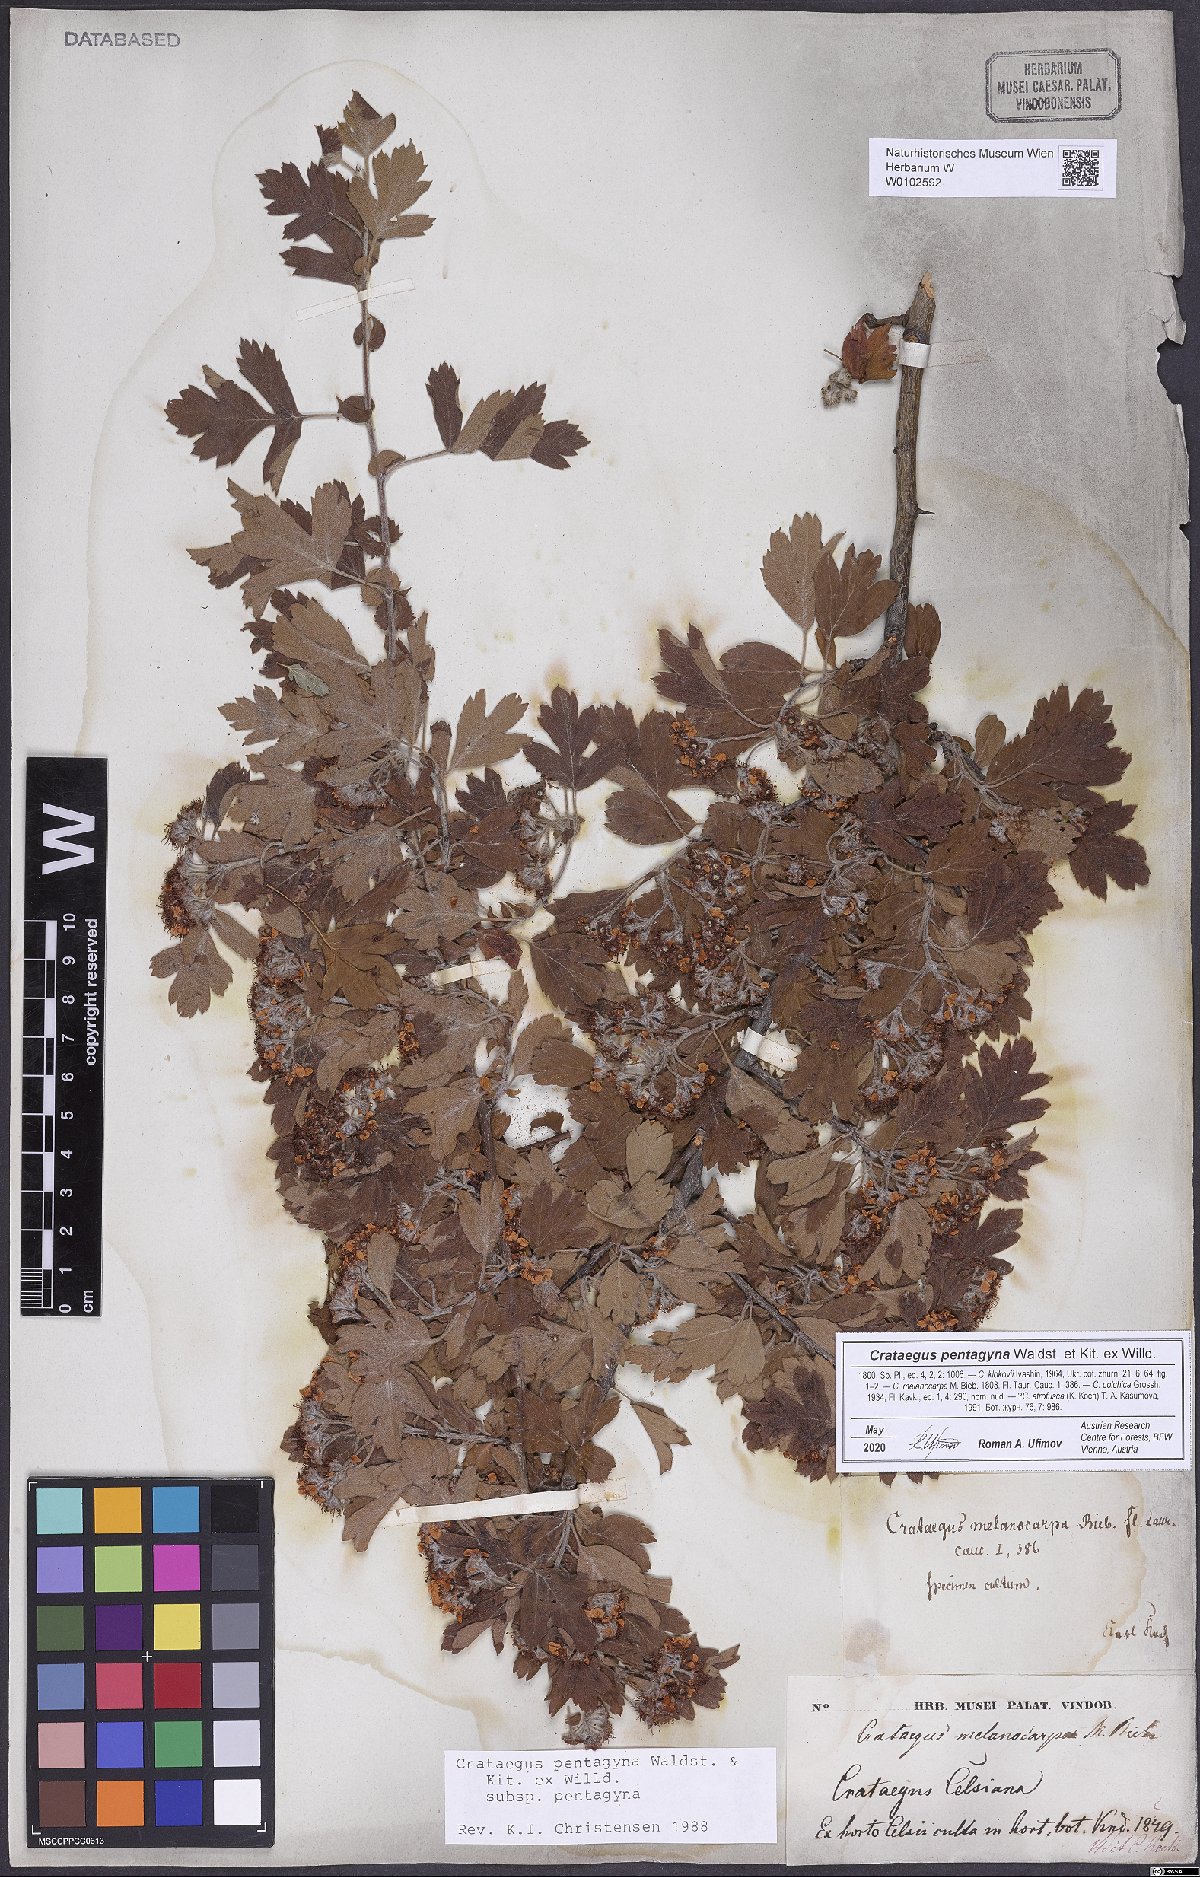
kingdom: Plantae
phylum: Tracheophyta
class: Magnoliopsida
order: Rosales
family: Rosaceae
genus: Crataegus
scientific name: Crataegus pentagyna
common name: Small-flowered black hawthorn
